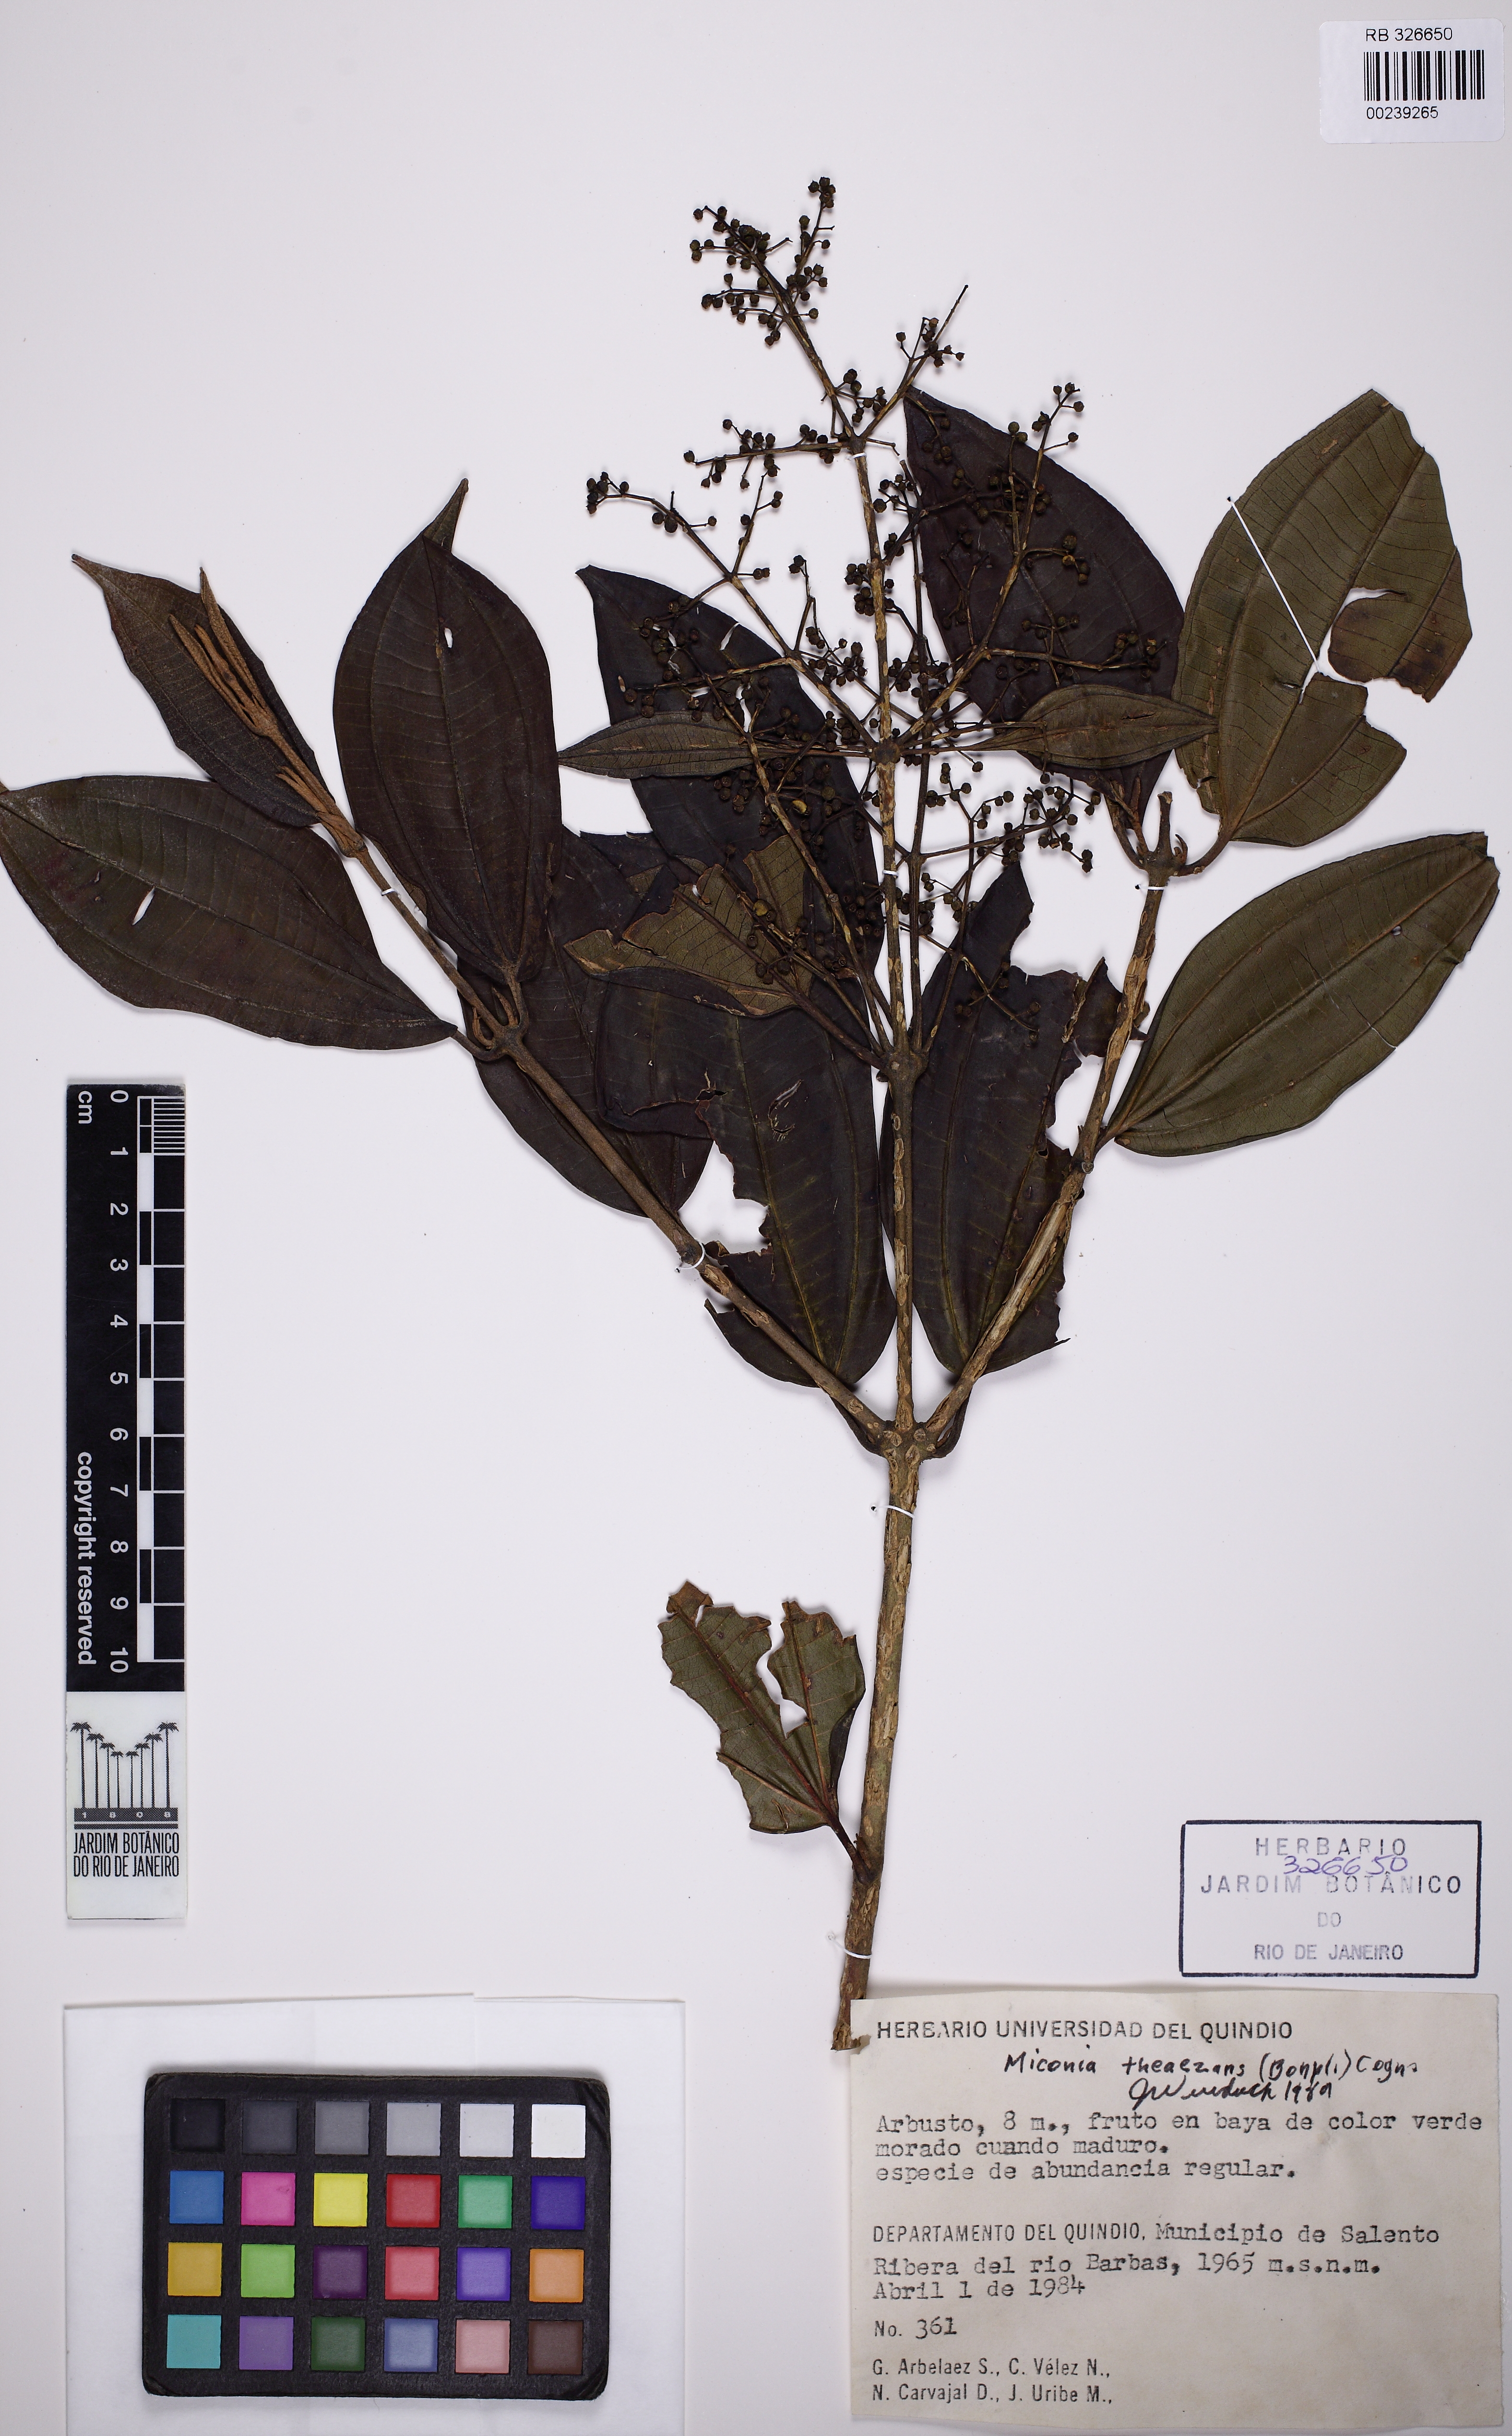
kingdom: Plantae
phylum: Tracheophyta
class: Magnoliopsida
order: Myrtales
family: Melastomataceae
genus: Miconia
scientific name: Miconia theizans
